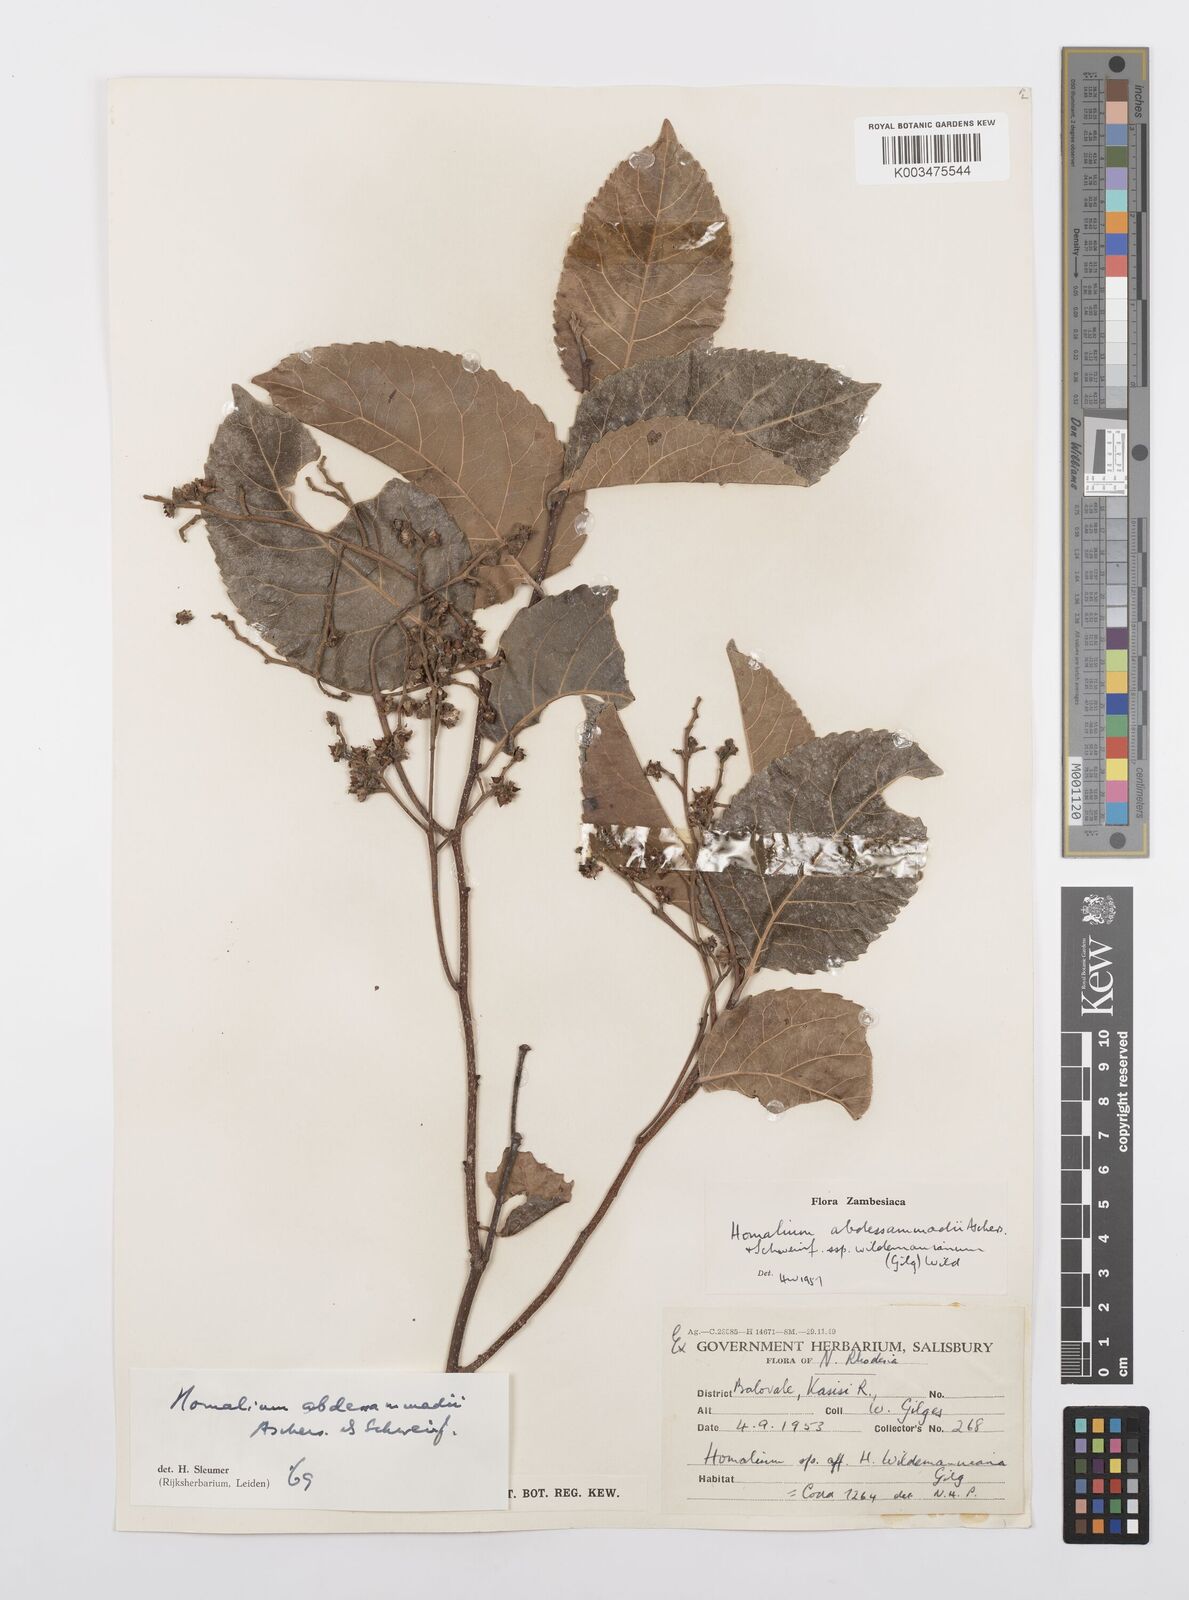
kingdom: Plantae
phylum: Tracheophyta
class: Magnoliopsida
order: Malpighiales
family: Salicaceae
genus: Homalium
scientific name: Homalium abdessammadii
